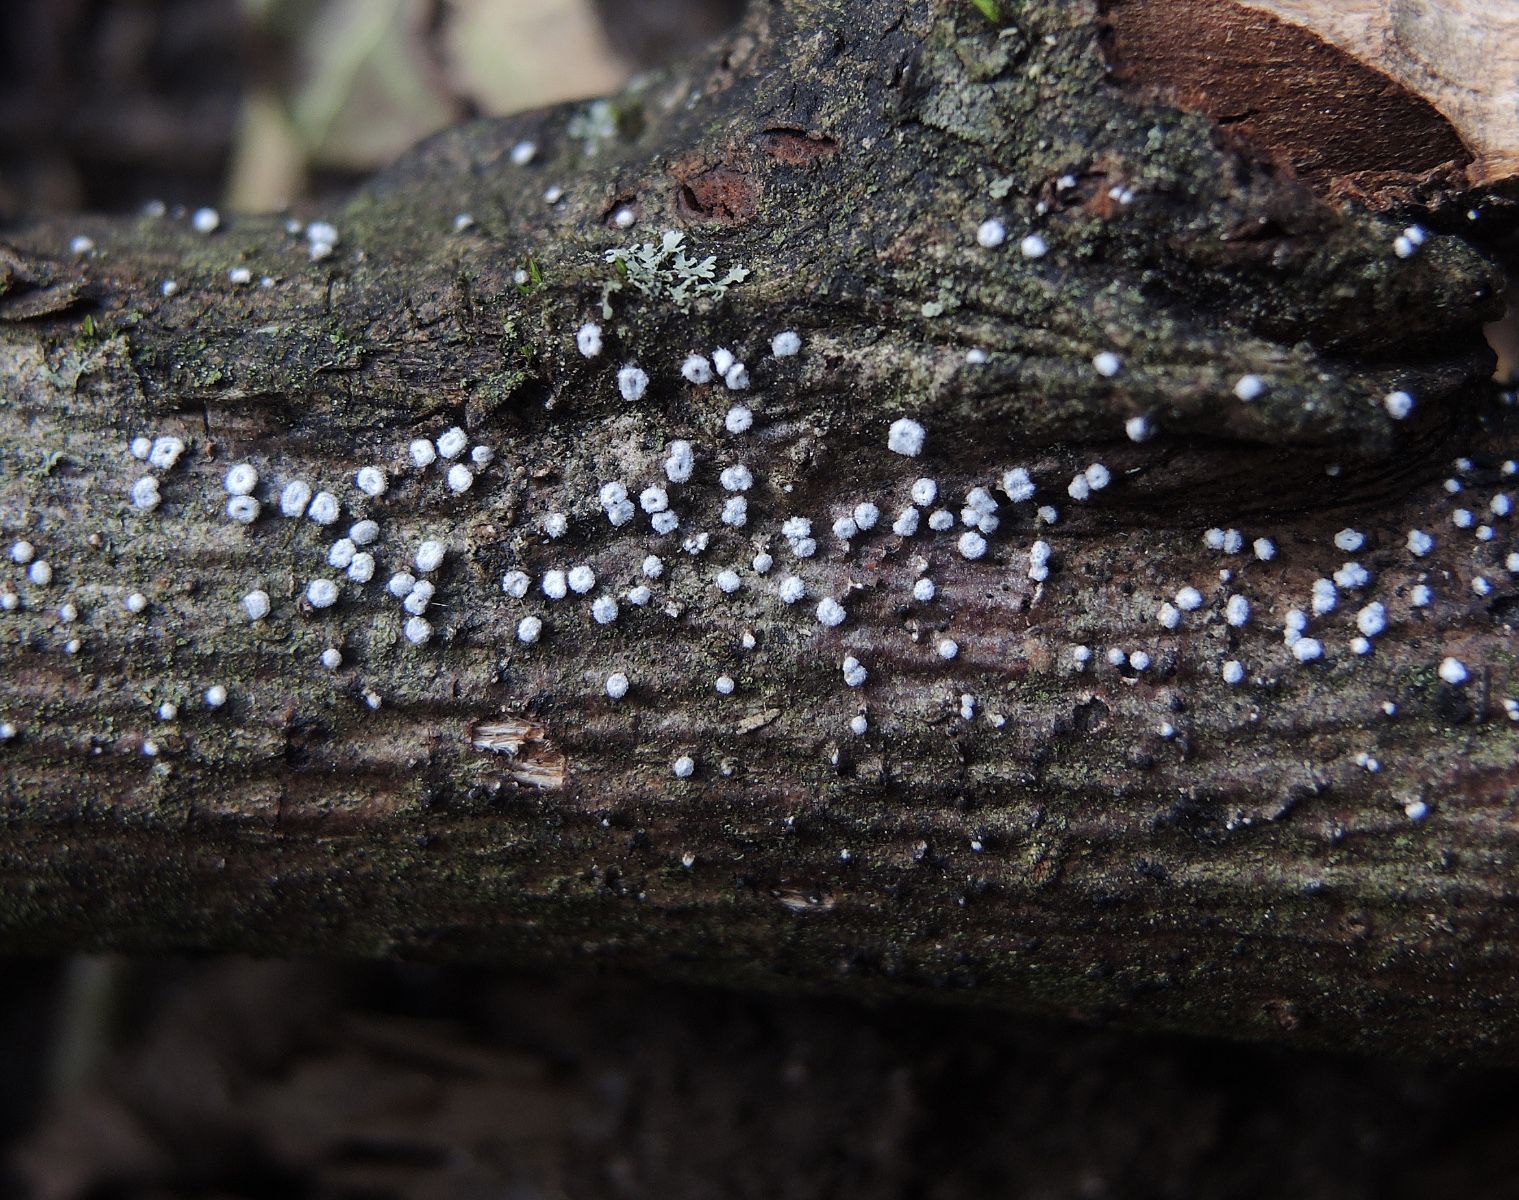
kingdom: Fungi
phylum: Basidiomycota
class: Agaricomycetes
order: Agaricales
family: Niaceae
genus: Lachnella
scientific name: Lachnella alboviolascens
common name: grå frynserede
